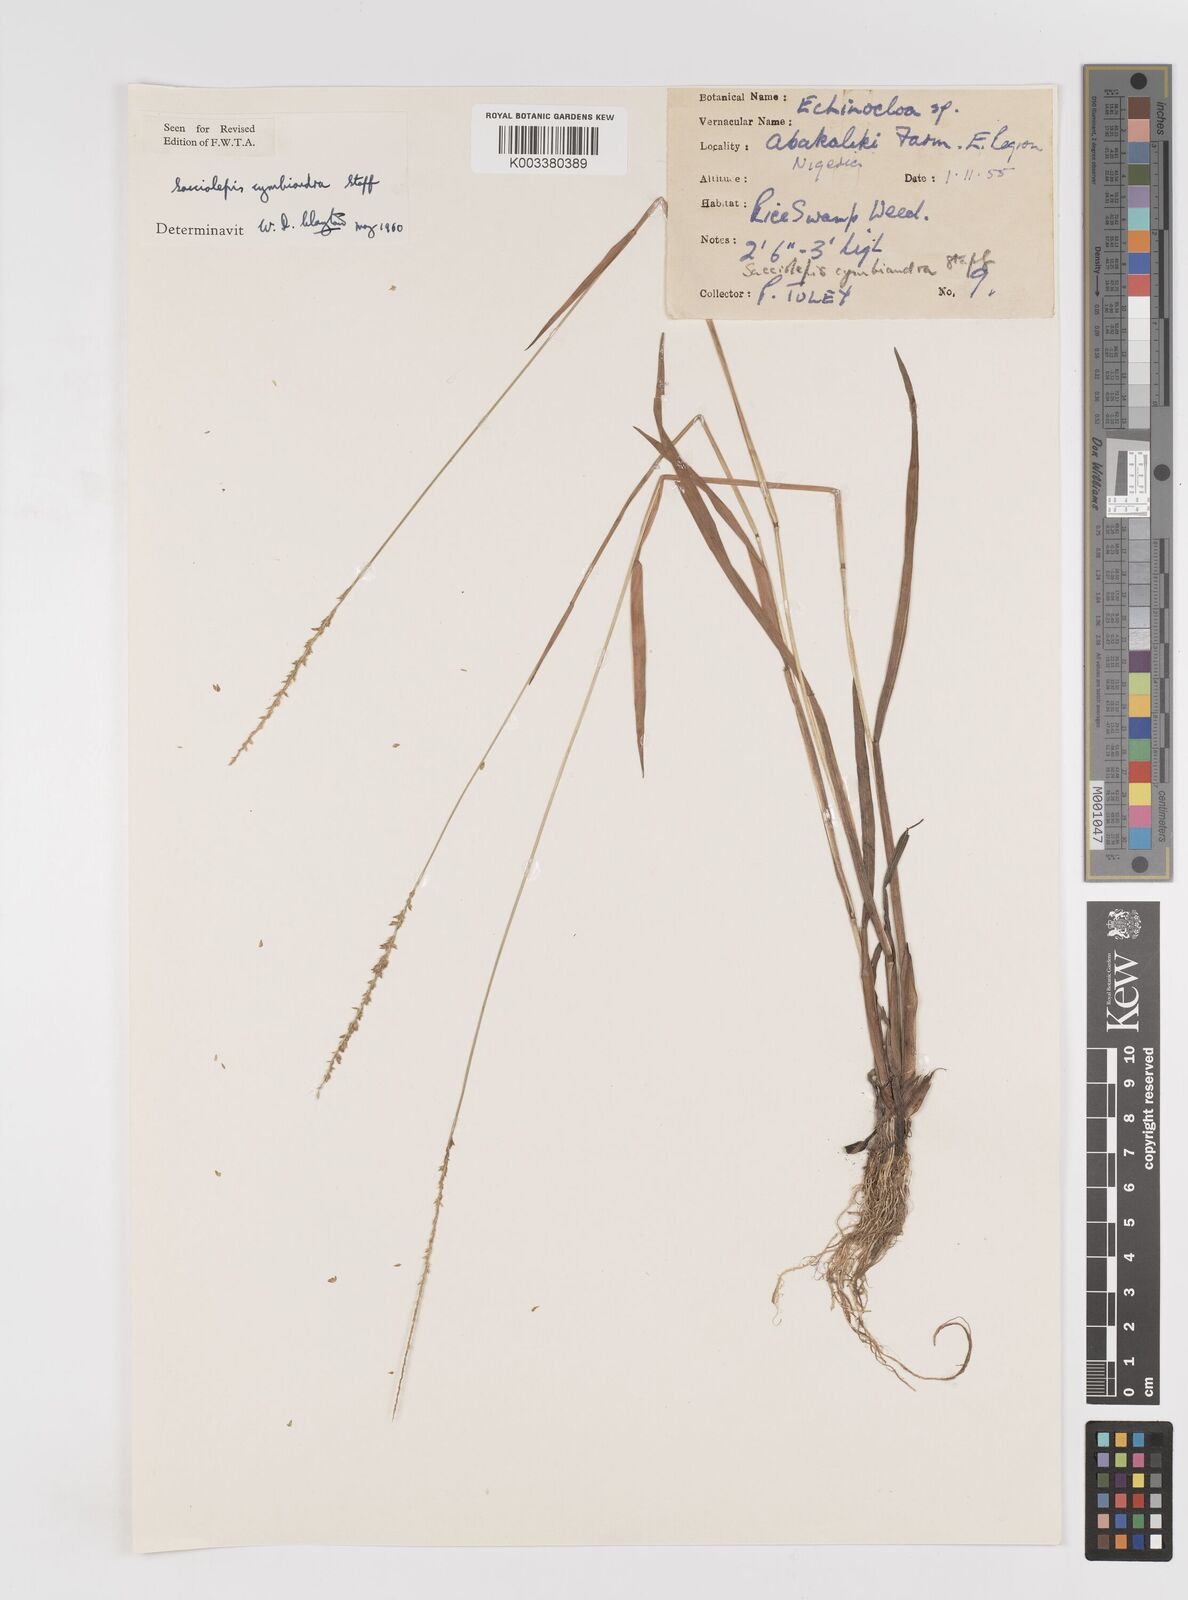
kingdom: Plantae
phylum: Tracheophyta
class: Liliopsida
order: Poales
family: Poaceae
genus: Sacciolepis
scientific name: Sacciolepis cymbiandra
